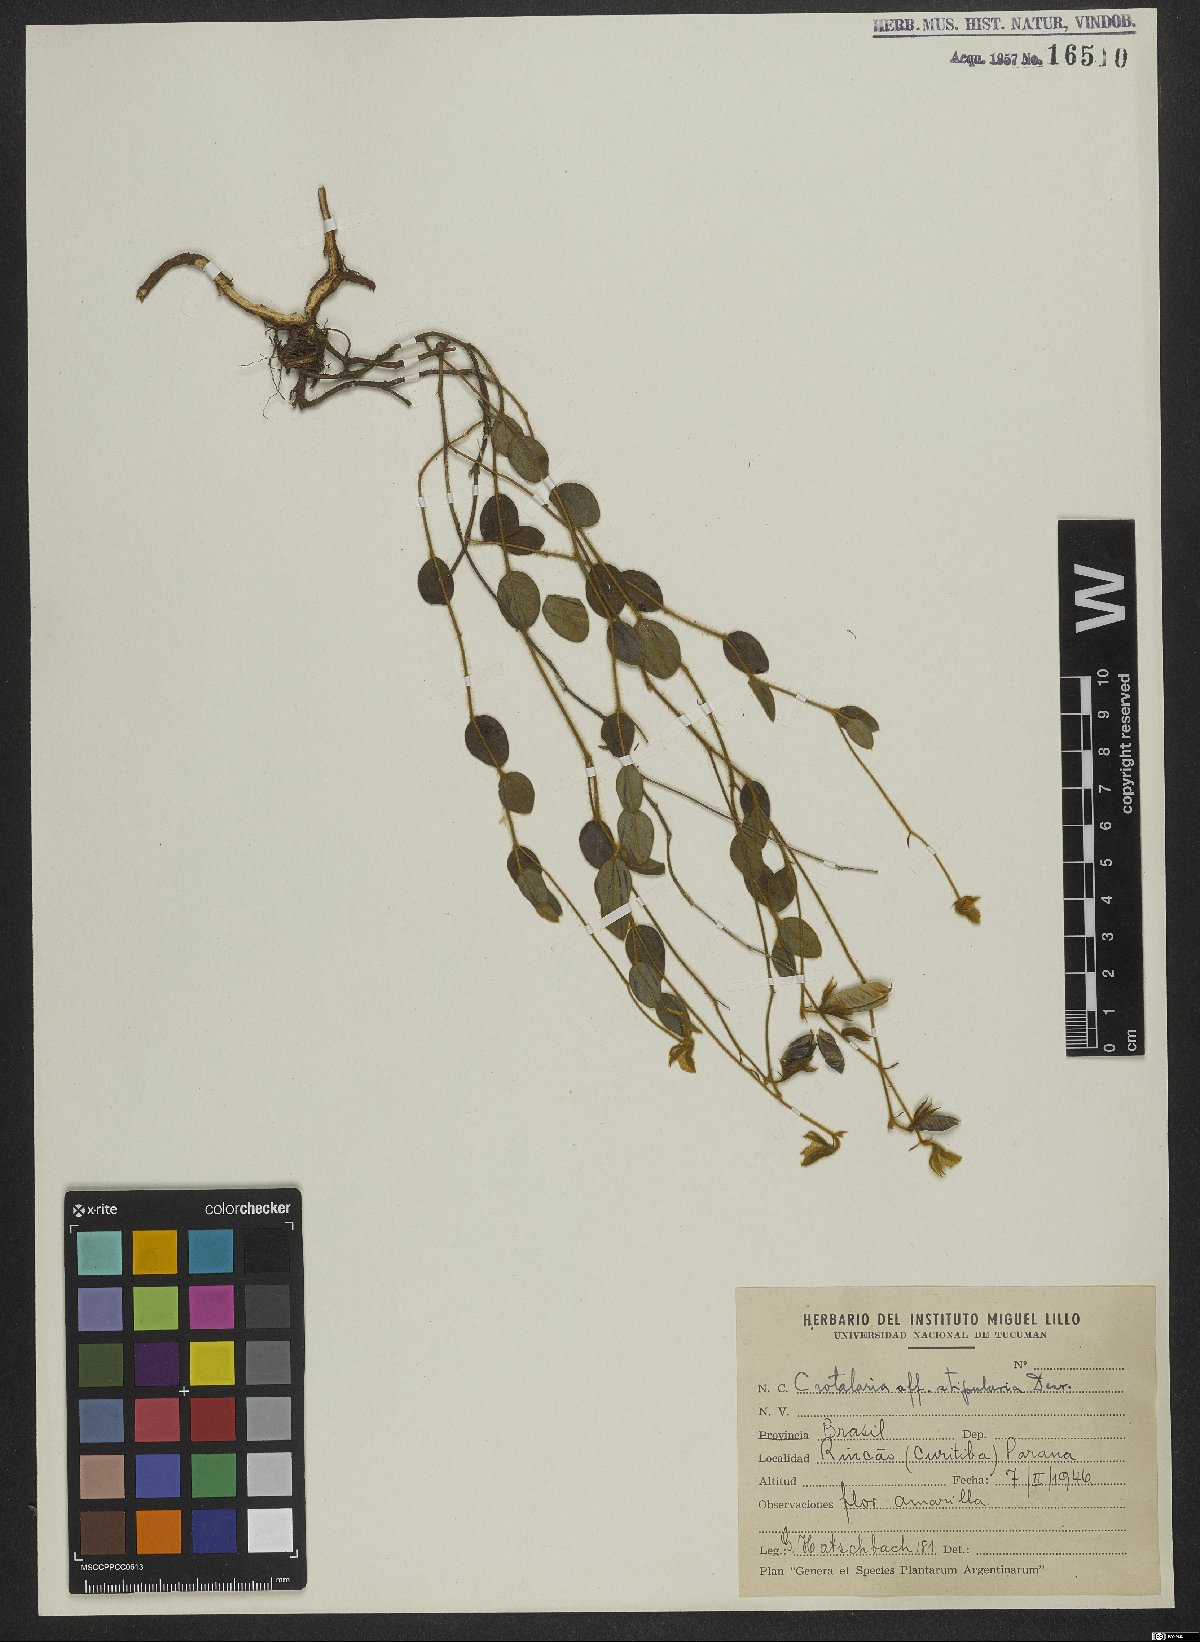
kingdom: Plantae
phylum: Tracheophyta
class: Magnoliopsida
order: Fabales
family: Fabaceae
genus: Crotalaria
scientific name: Crotalaria stipularia
